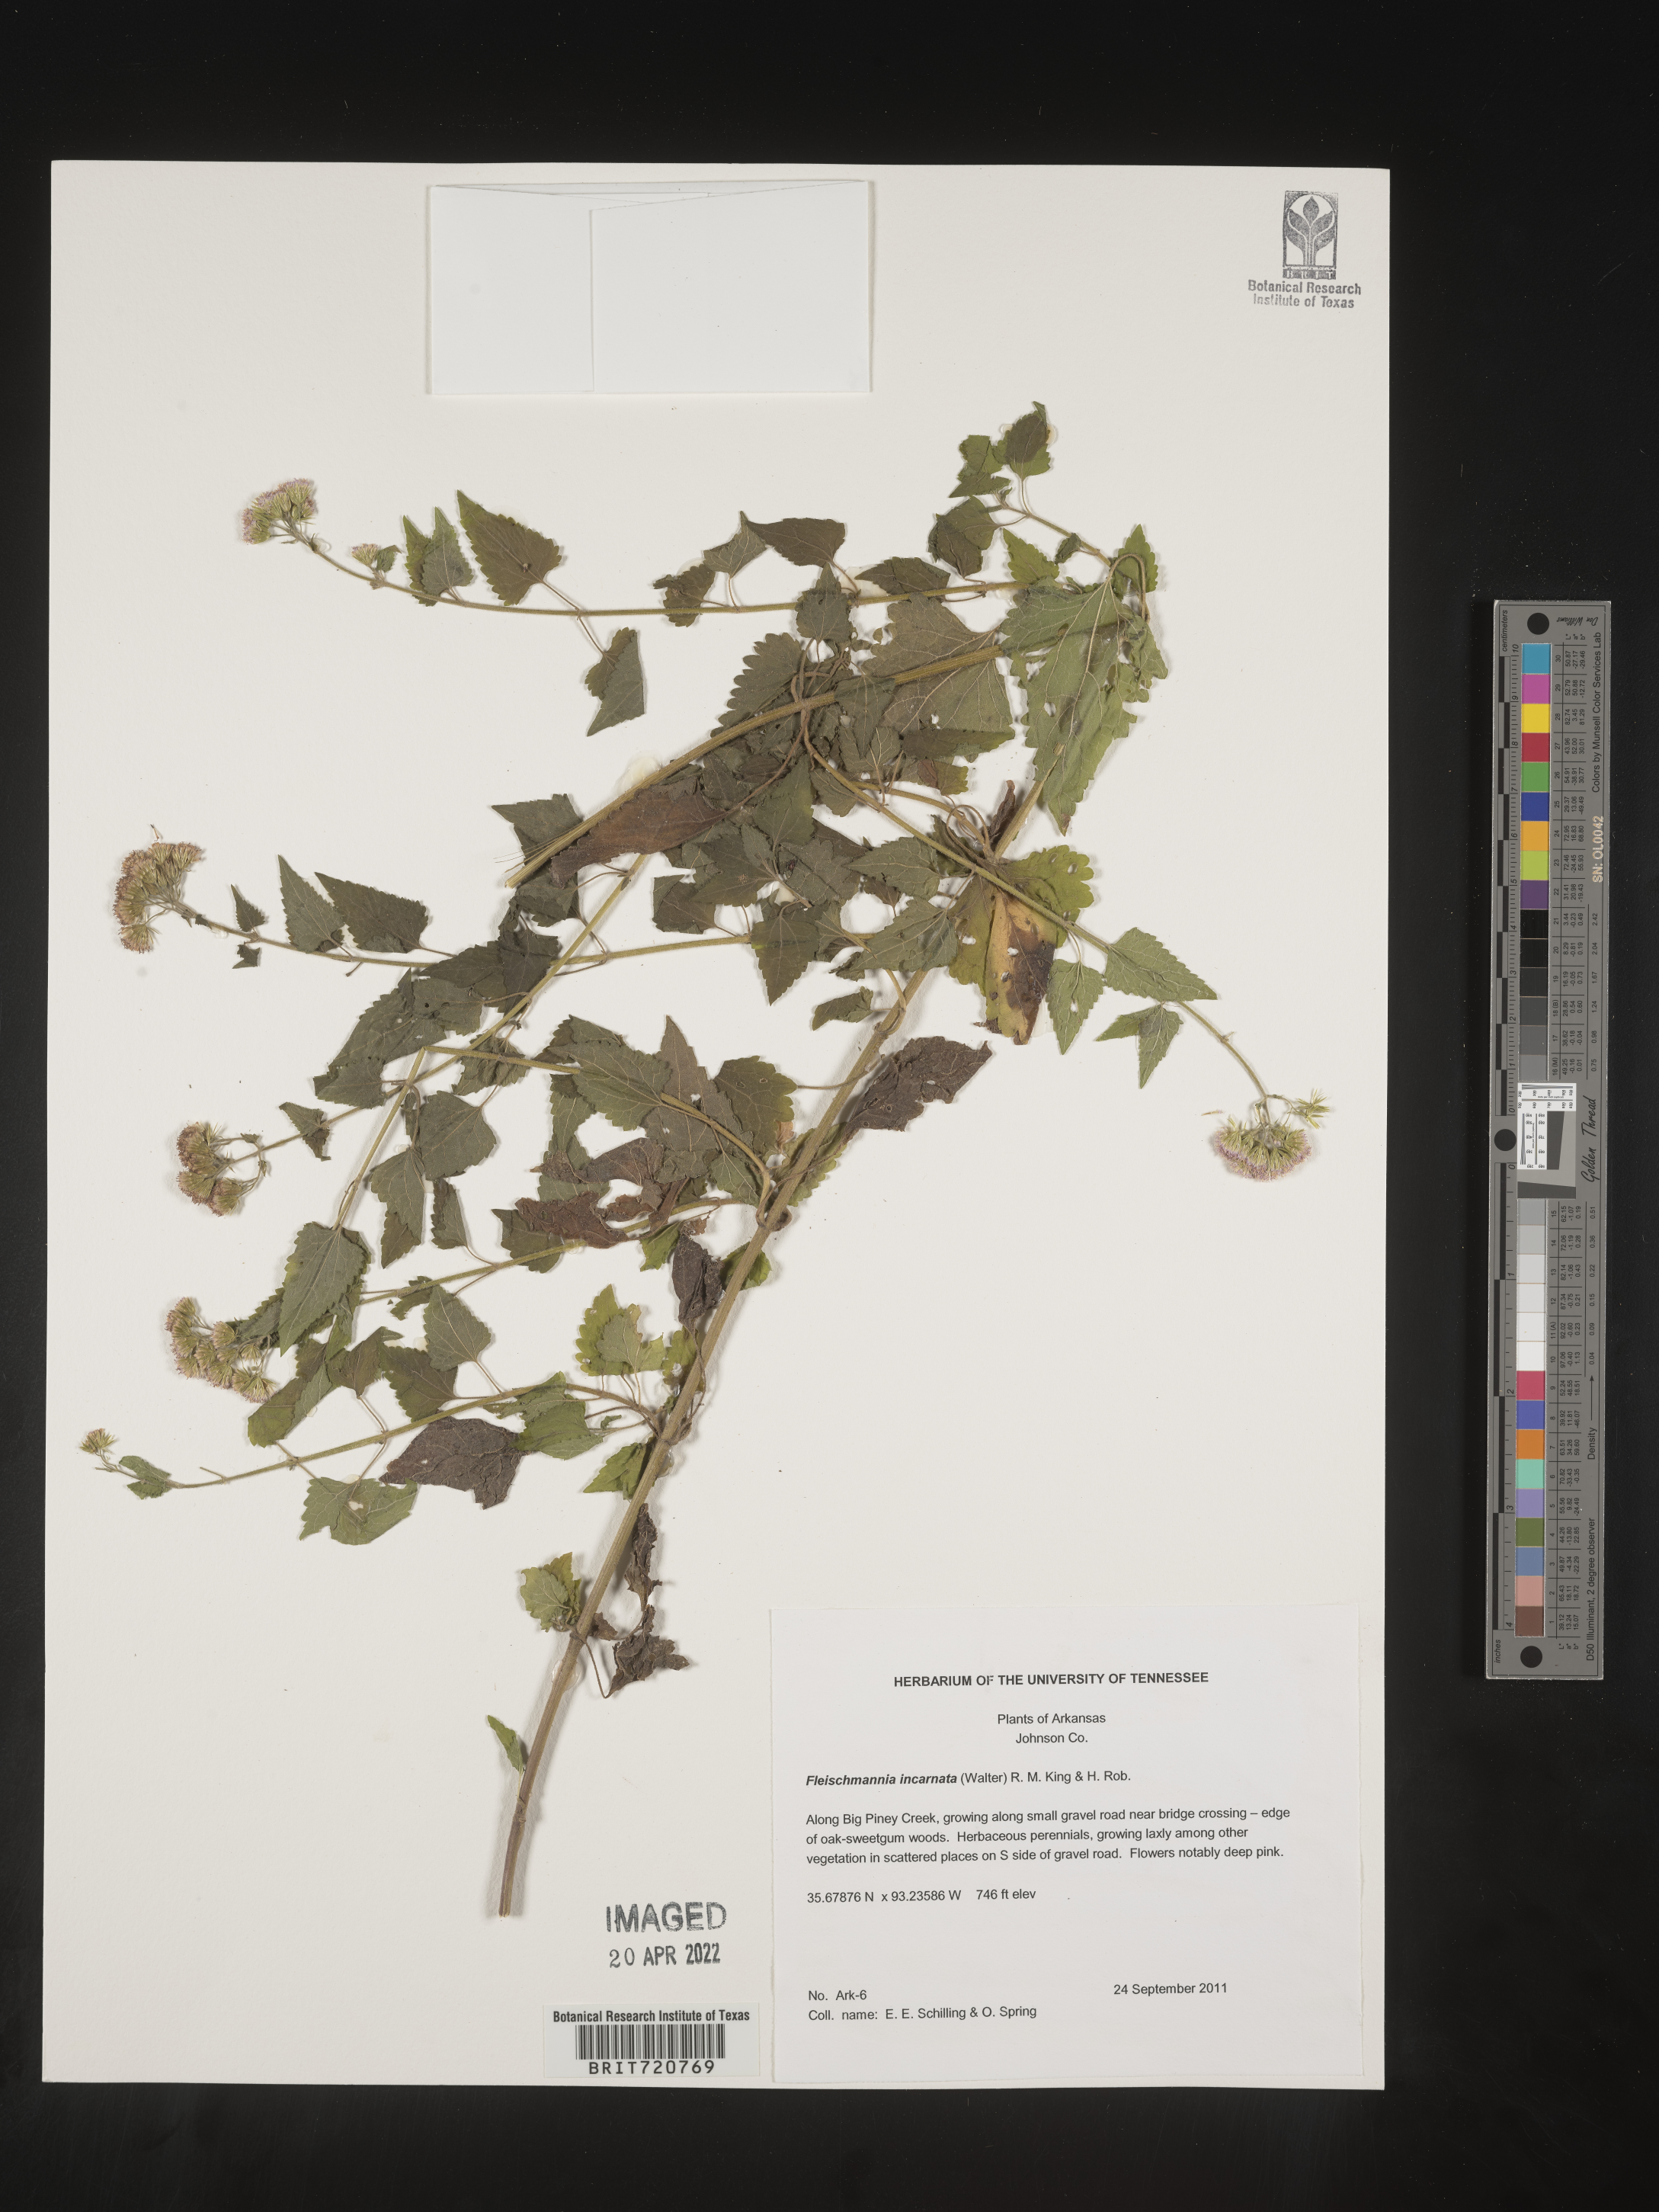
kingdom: Plantae
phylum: Tracheophyta
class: Magnoliopsida
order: Asterales
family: Asteraceae
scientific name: Asteraceae
